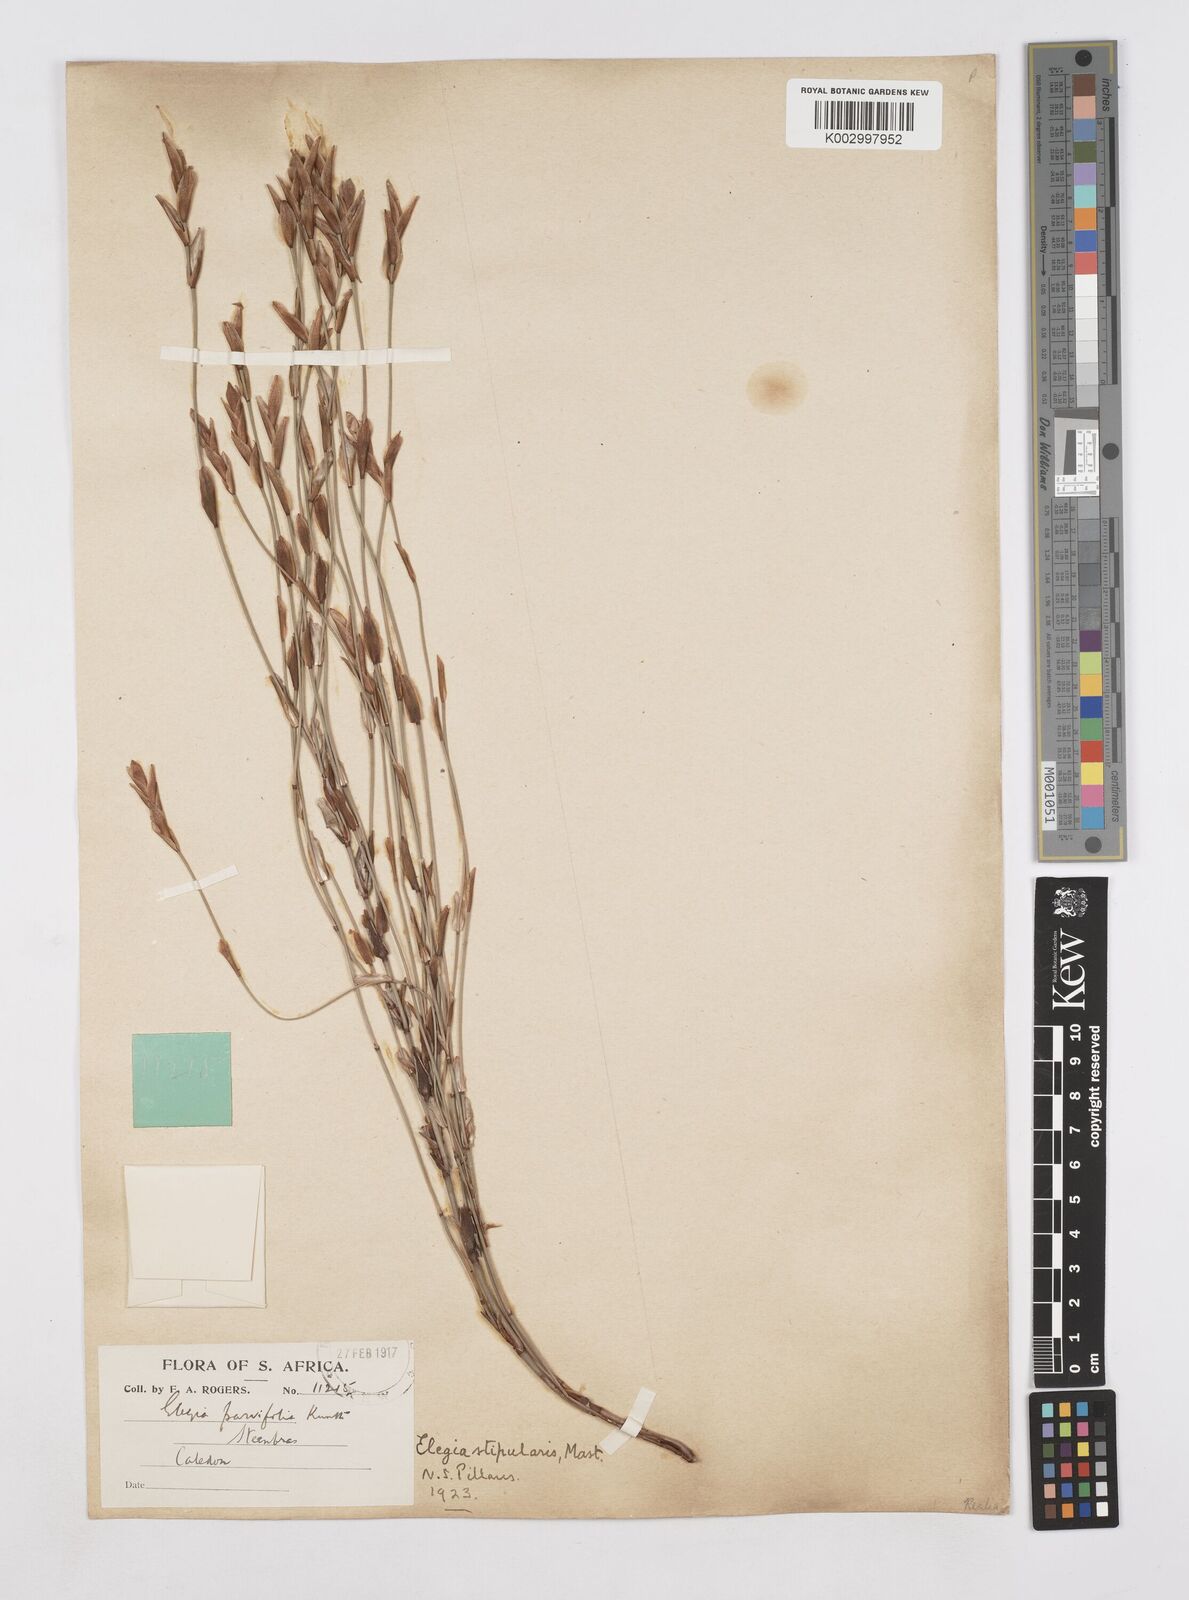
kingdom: Plantae
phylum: Tracheophyta
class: Liliopsida
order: Poales
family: Restionaceae
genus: Elegia
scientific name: Elegia stipularis
